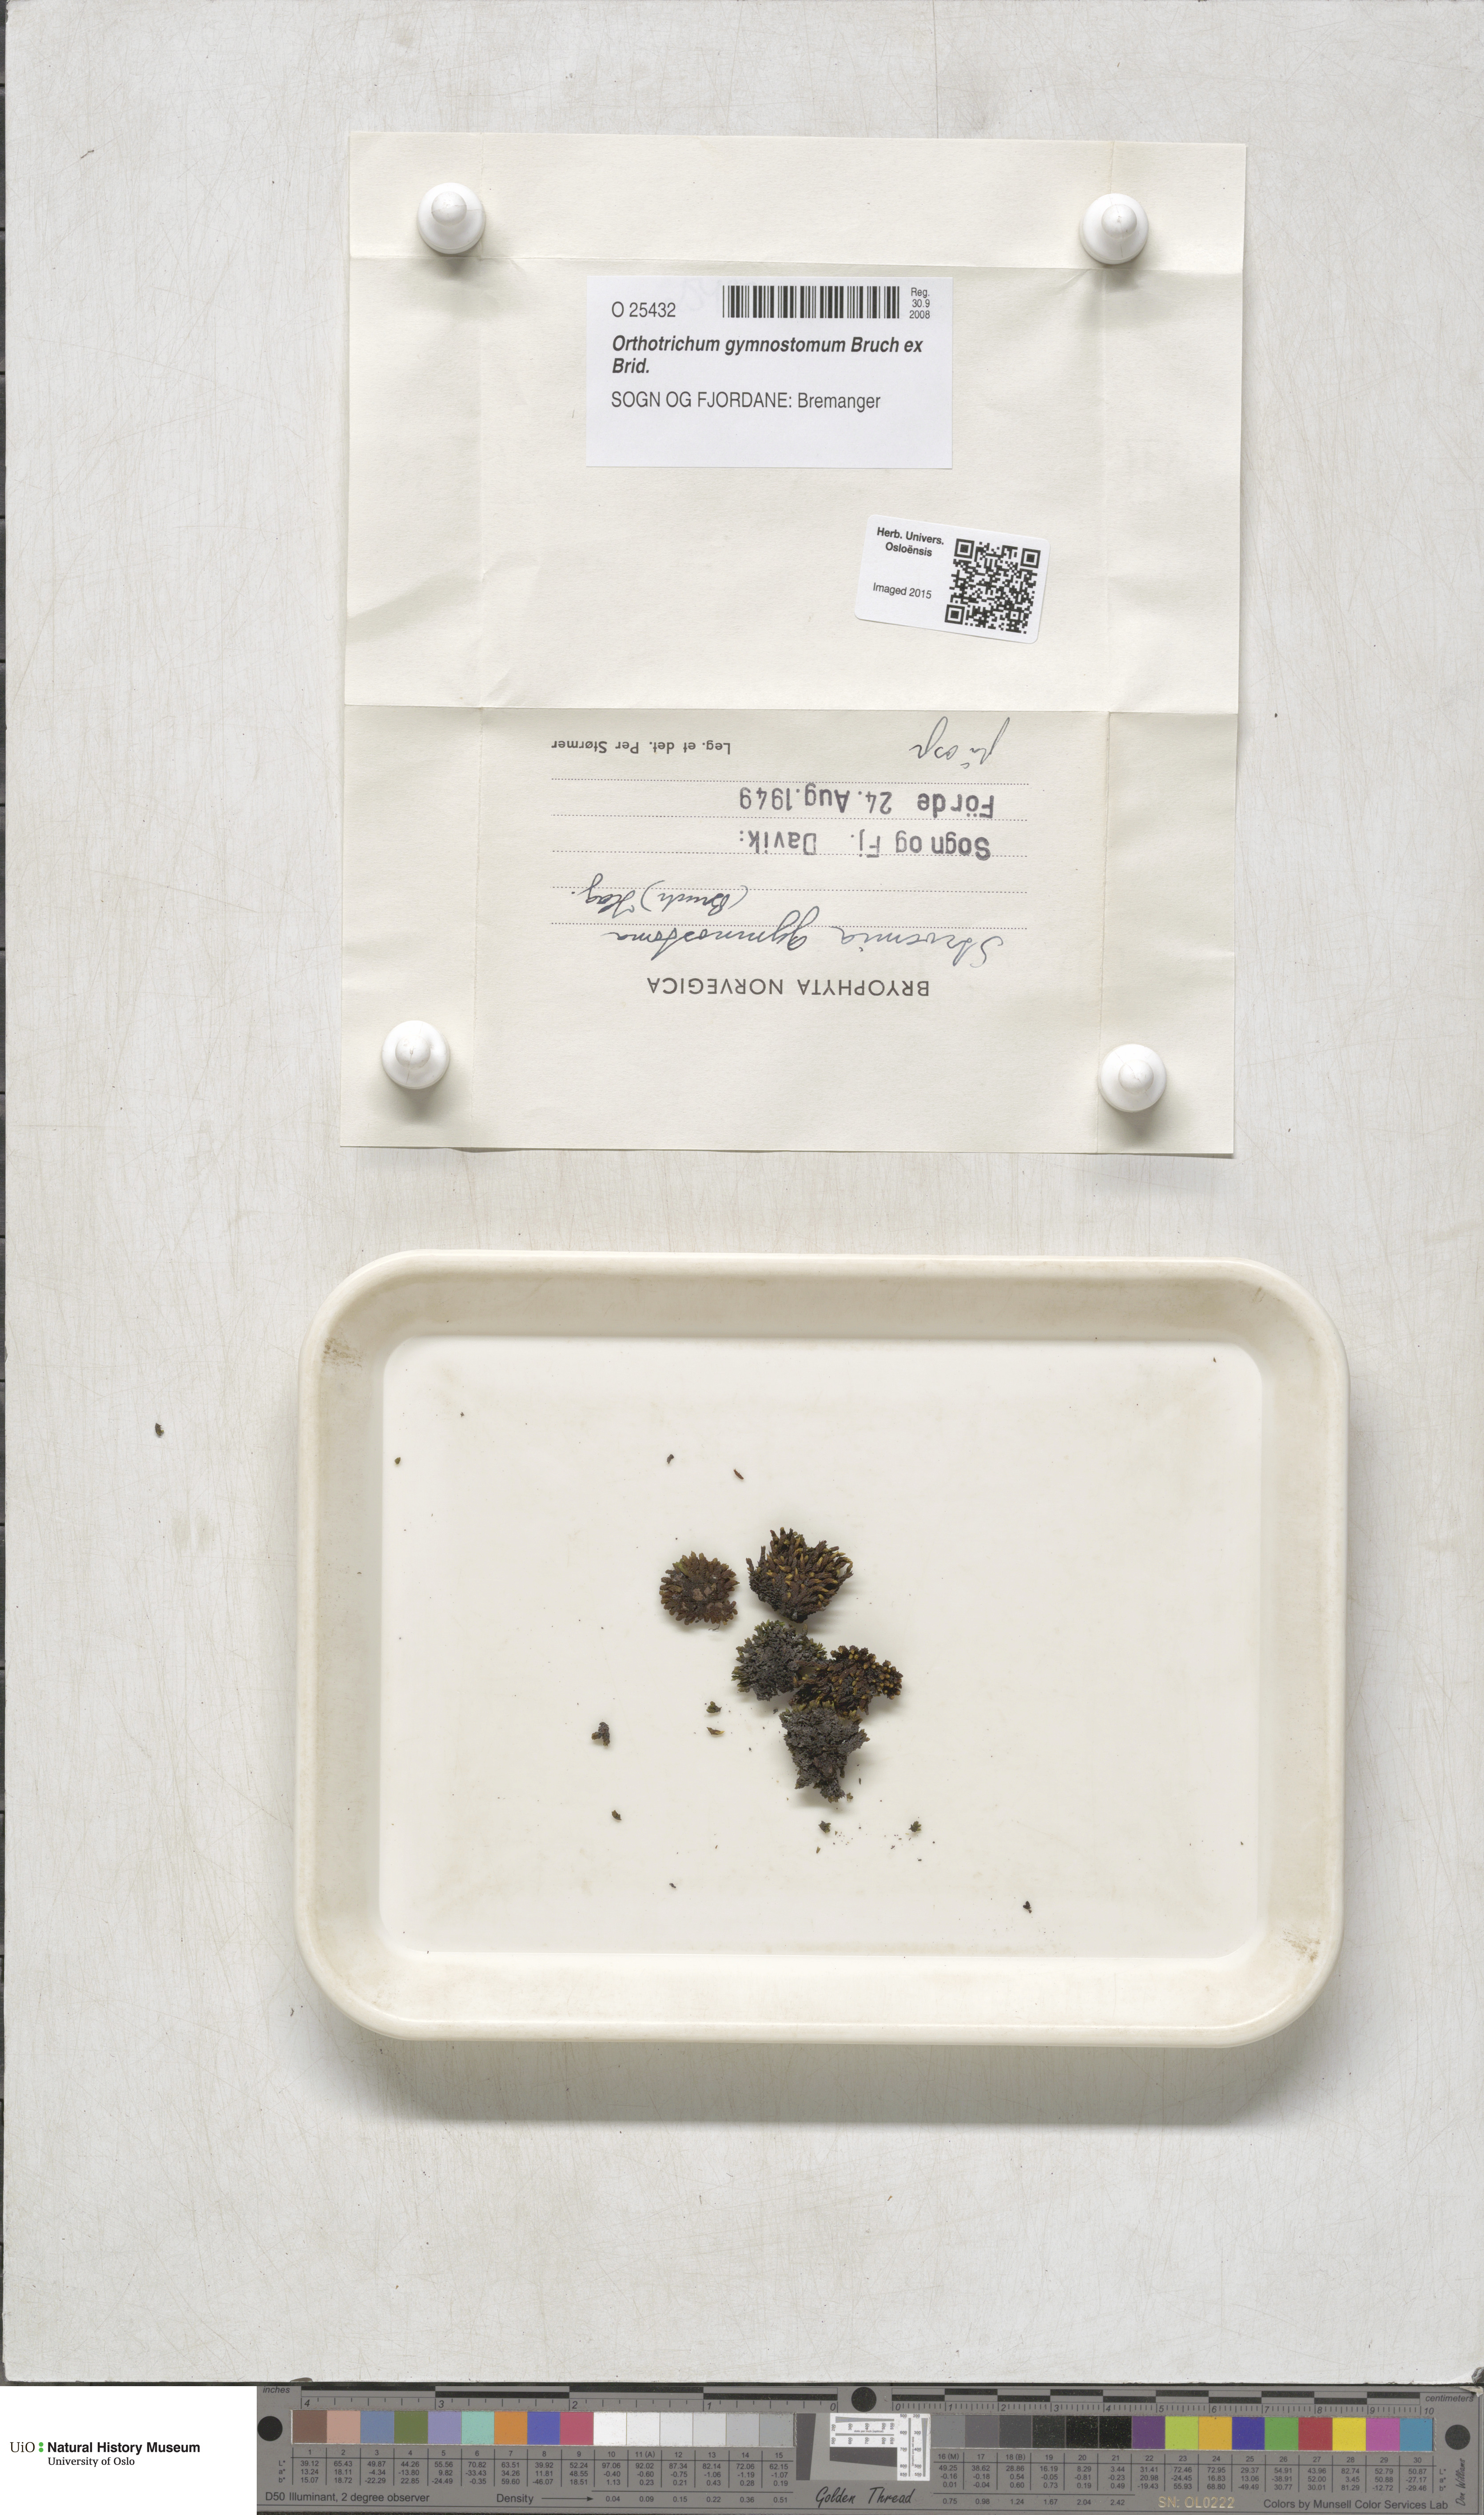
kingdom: Plantae
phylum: Bryophyta
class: Bryopsida
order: Orthotrichales
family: Orthotrichaceae
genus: Nyholmiella
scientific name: Nyholmiella gymnostoma
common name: Aspen bristle-moss
